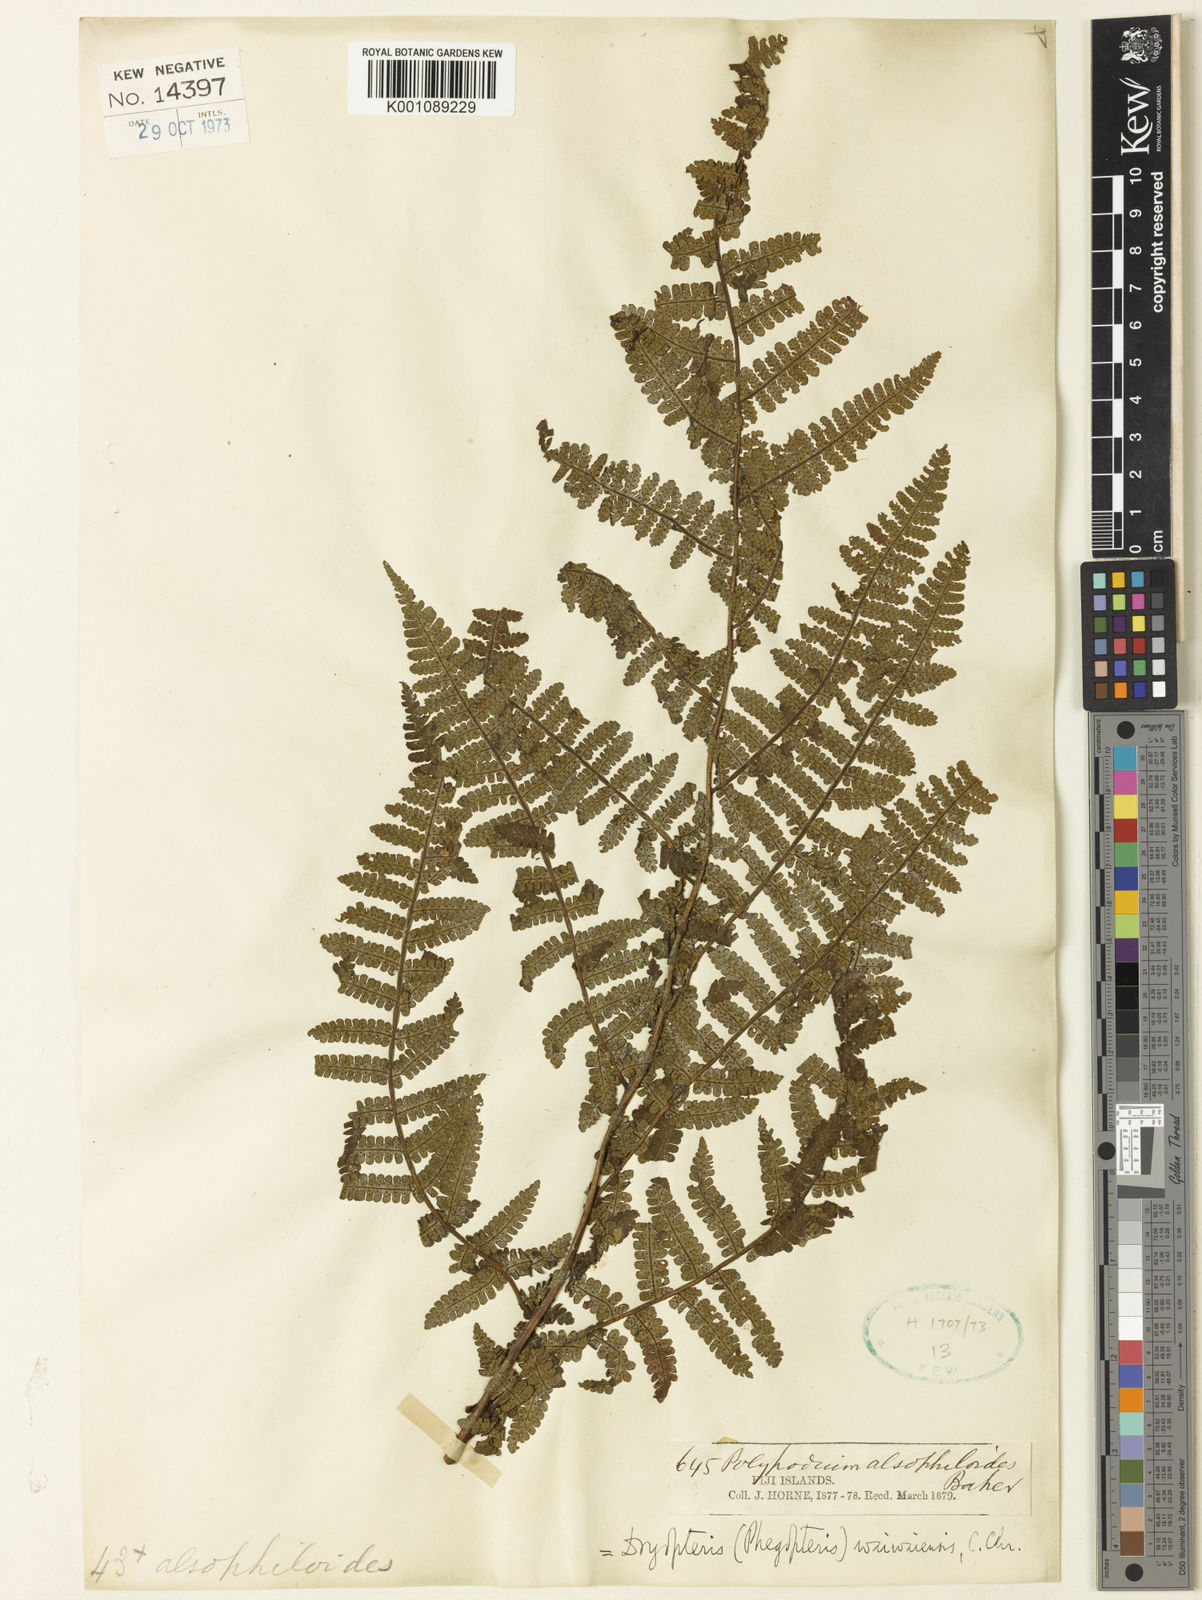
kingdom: Plantae
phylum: Tracheophyta
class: Polypodiopsida
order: Polypodiales
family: Athyriaceae
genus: Deparia
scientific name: Deparia boryana
